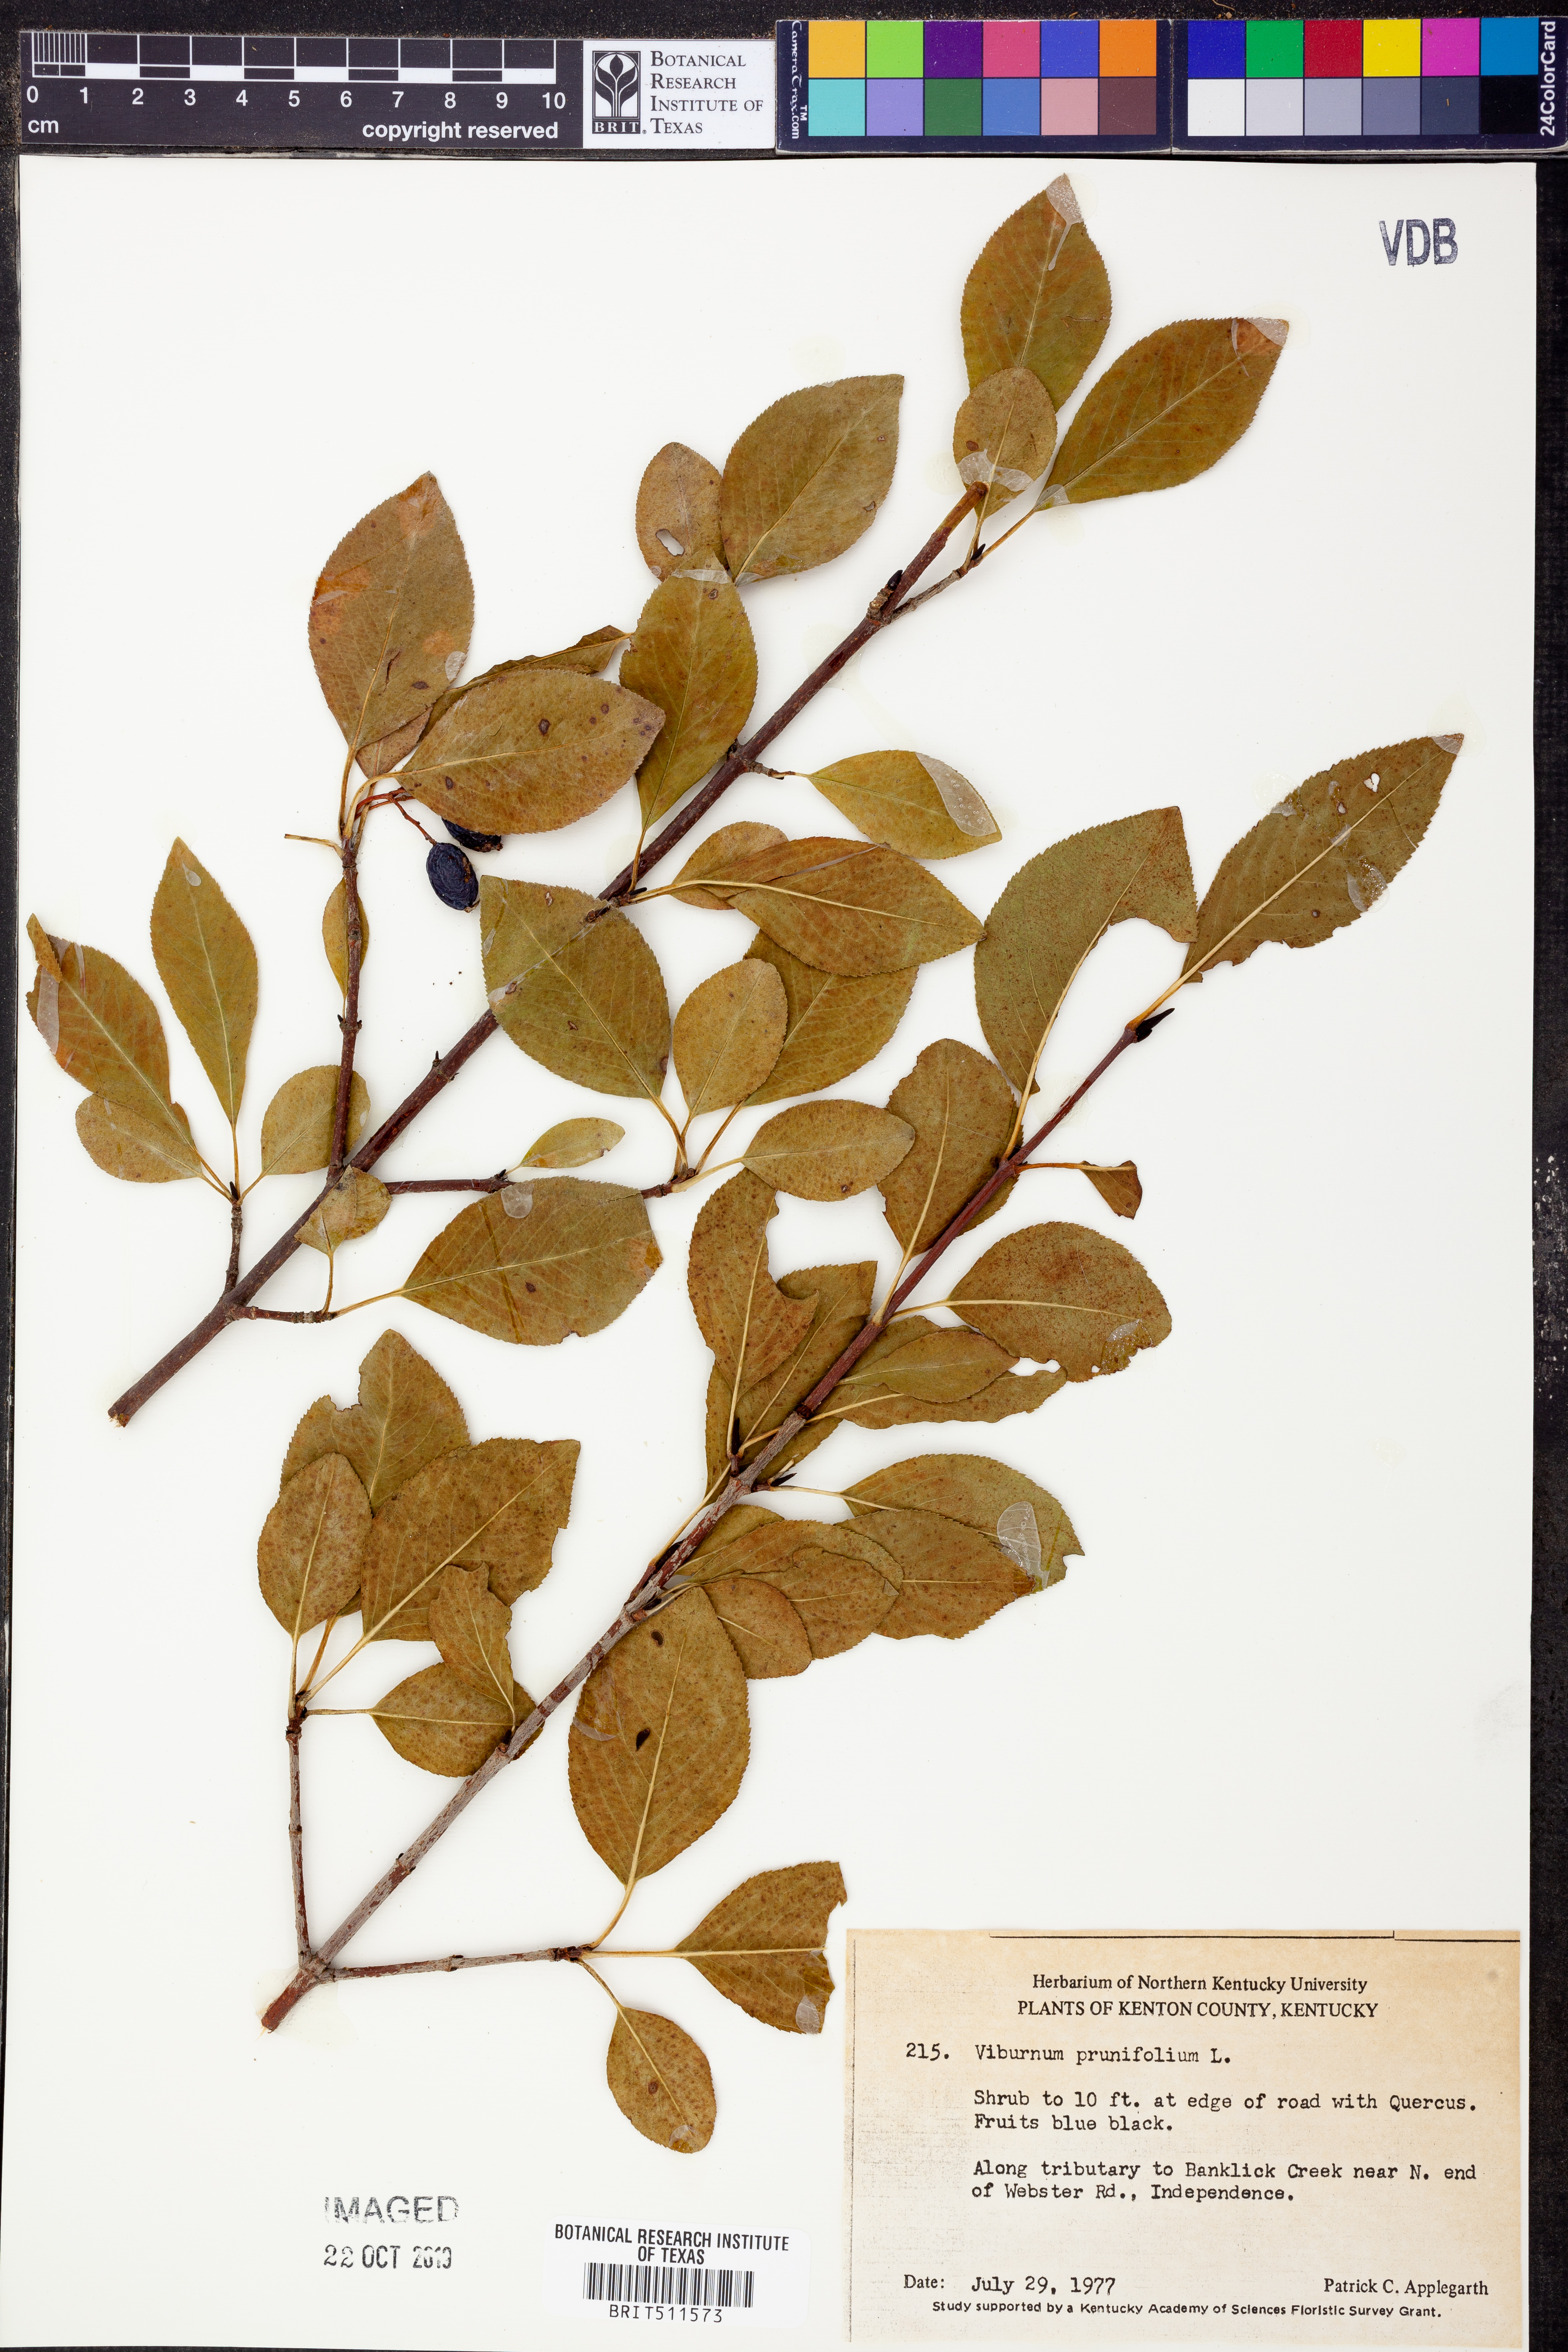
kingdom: Plantae
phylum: Tracheophyta
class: Magnoliopsida
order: Dipsacales
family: Viburnaceae
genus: Viburnum
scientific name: Viburnum prunifolium
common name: Black haw
